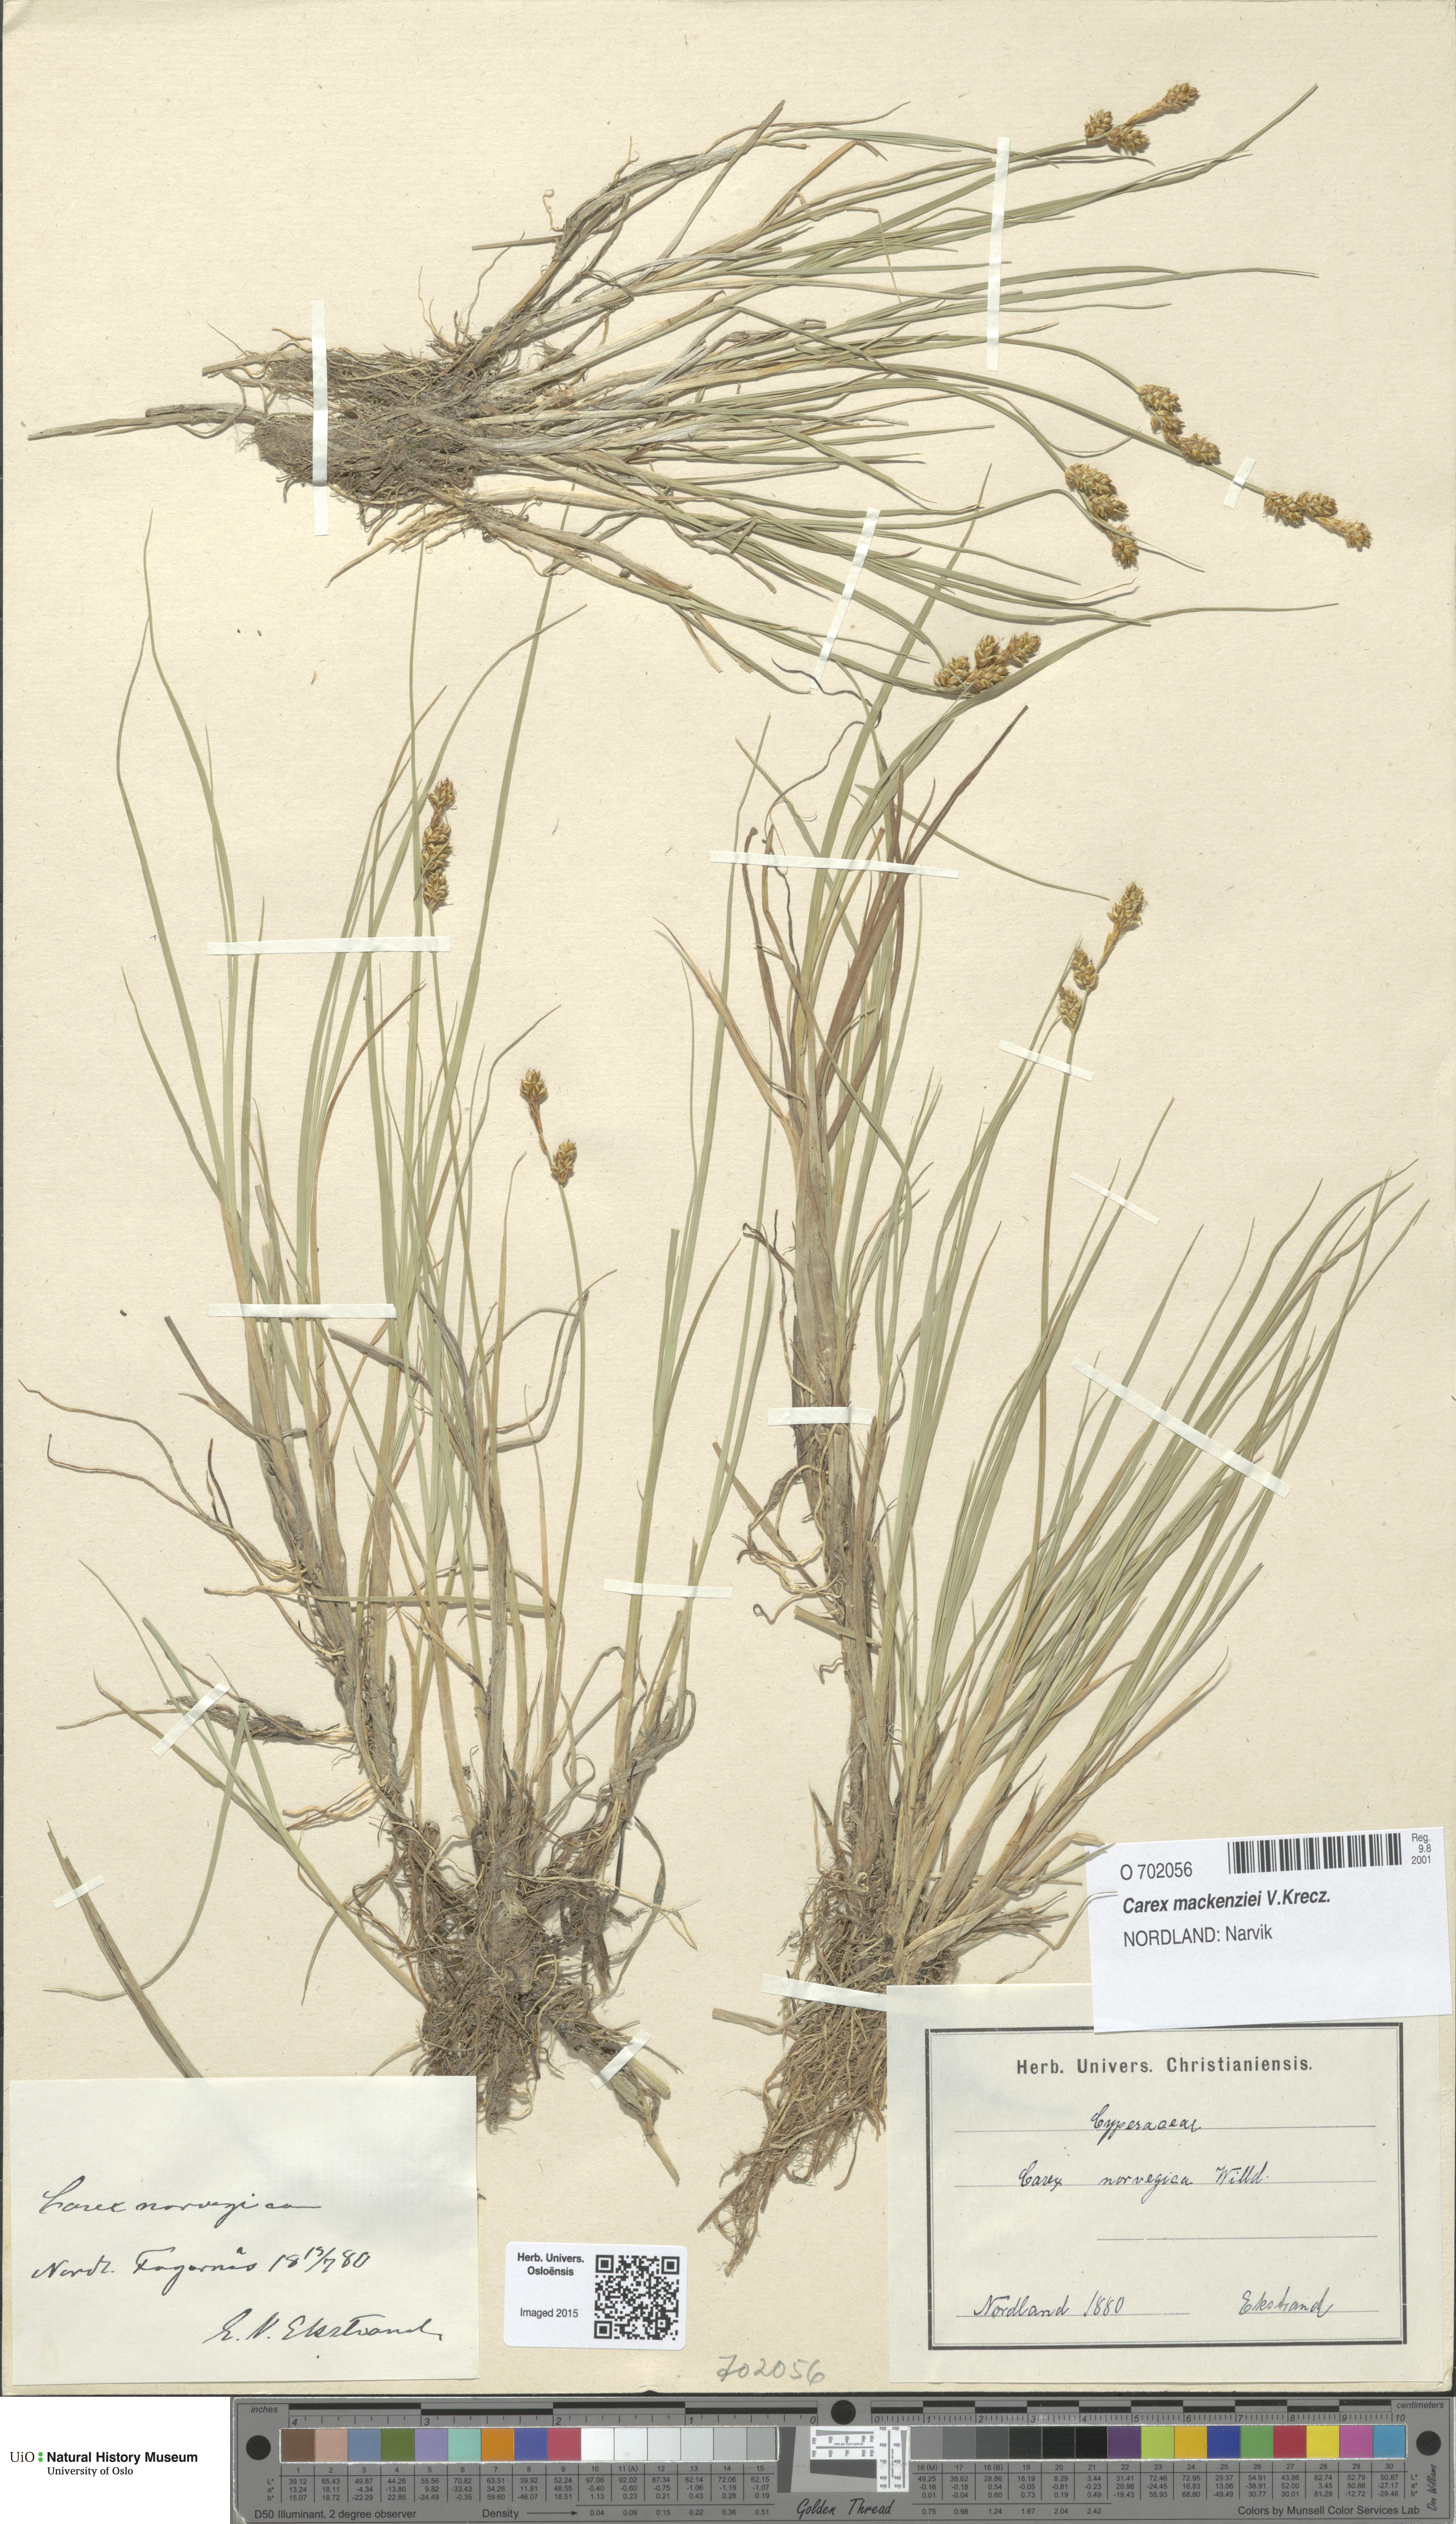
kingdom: Plantae
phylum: Tracheophyta
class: Liliopsida
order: Poales
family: Cyperaceae
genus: Carex
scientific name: Carex mackenziei
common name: Mackenzie's sedge
